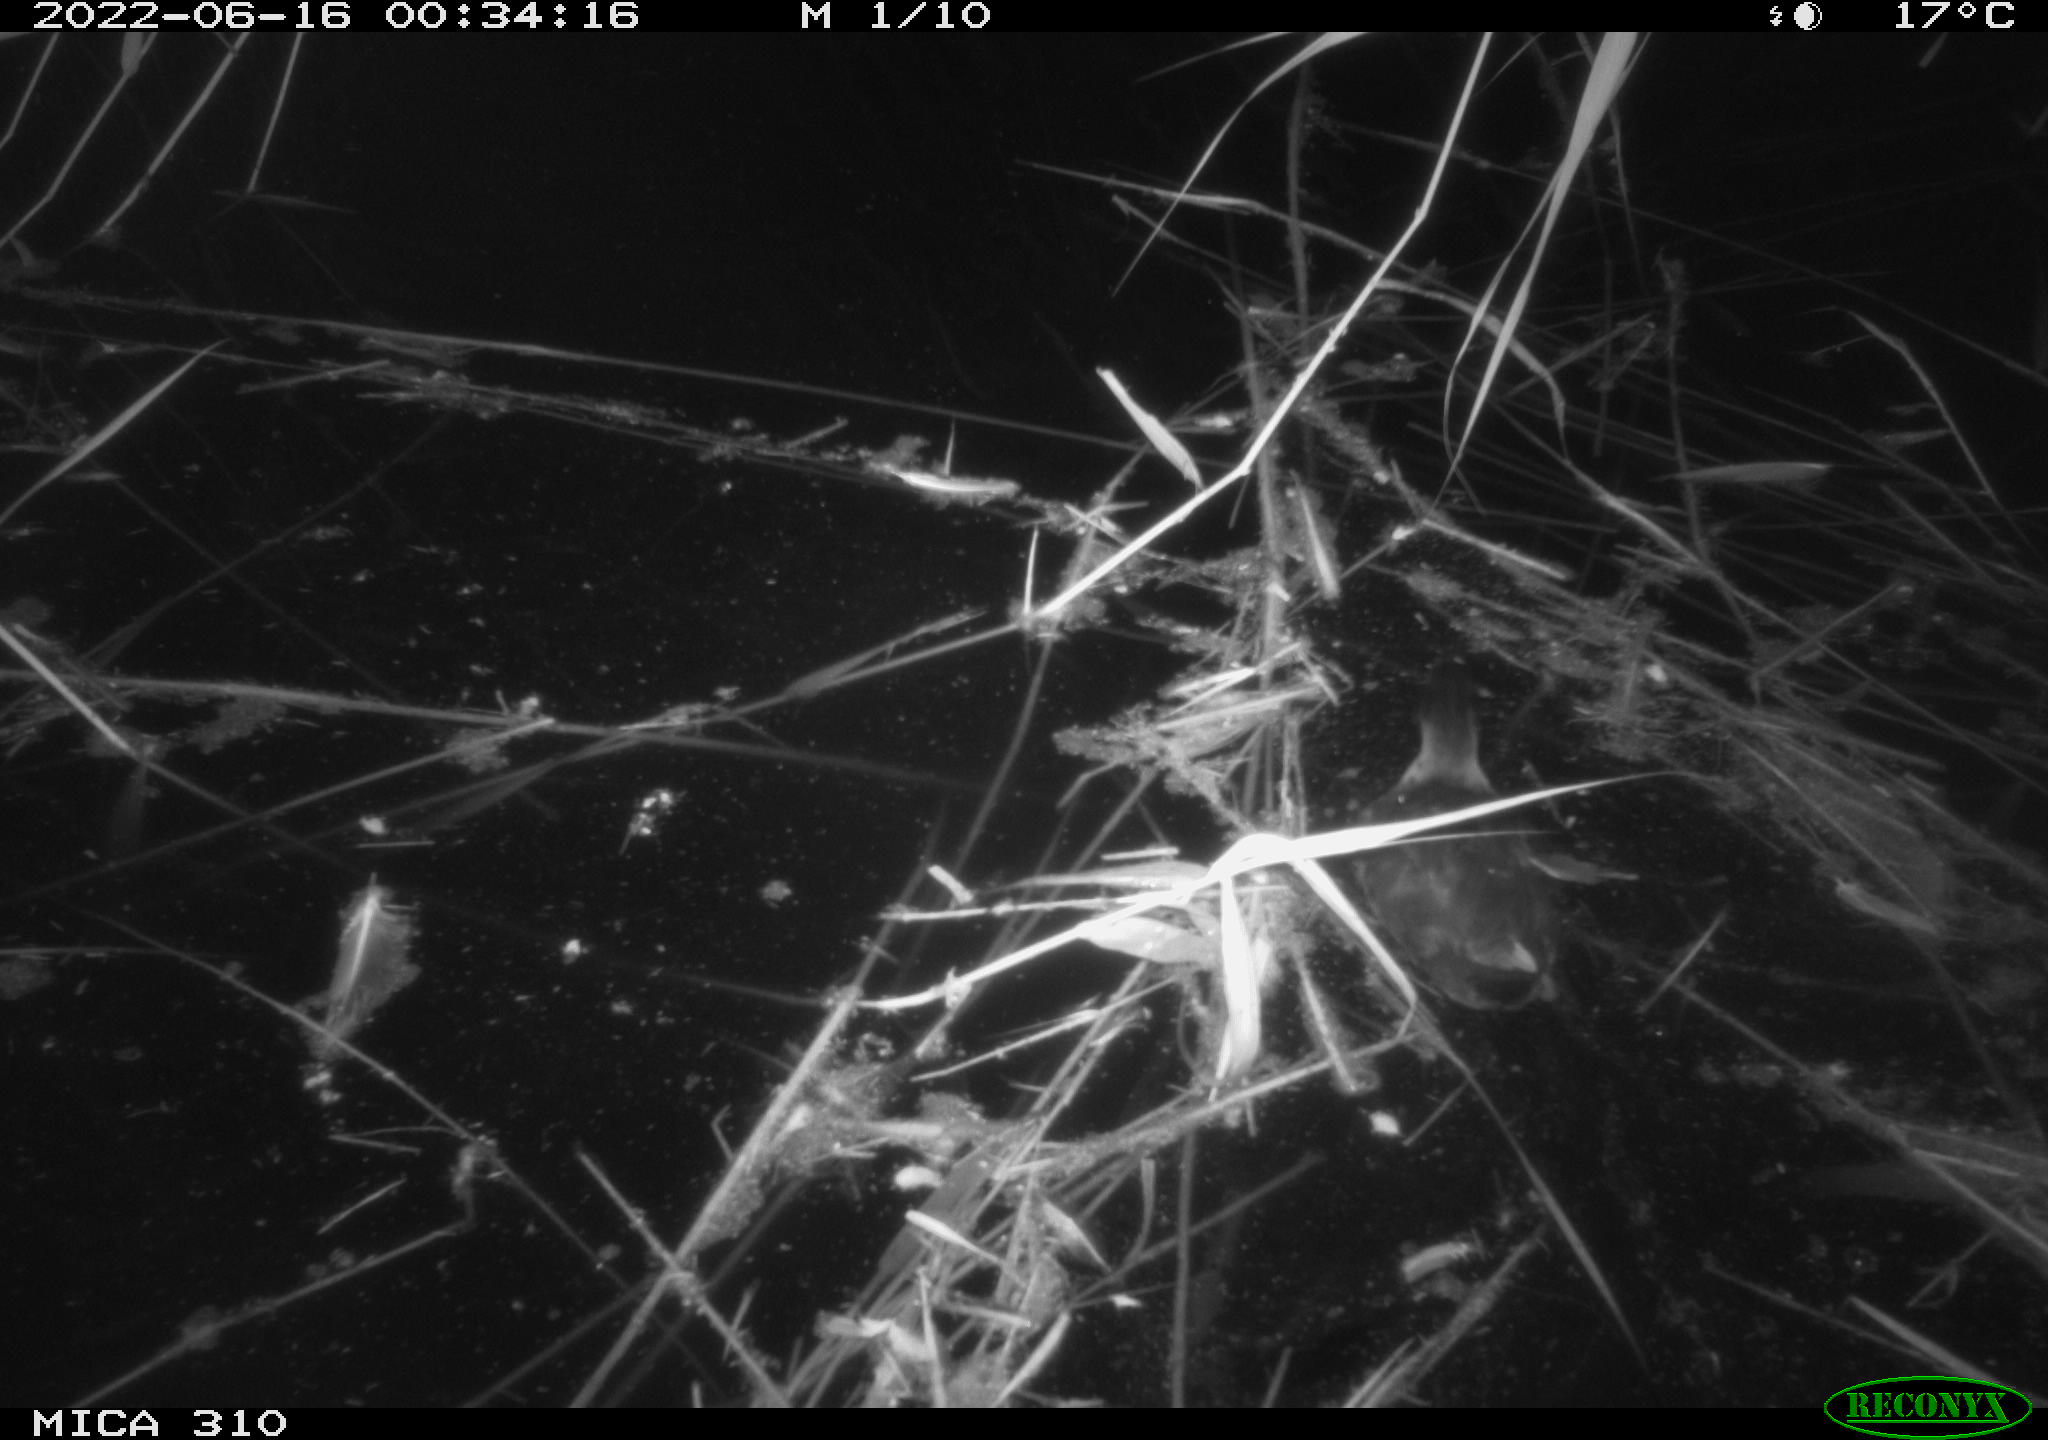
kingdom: Animalia
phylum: Chordata
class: Aves
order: Gruiformes
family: Rallidae
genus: Gallinula
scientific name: Gallinula chloropus
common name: Common moorhen
